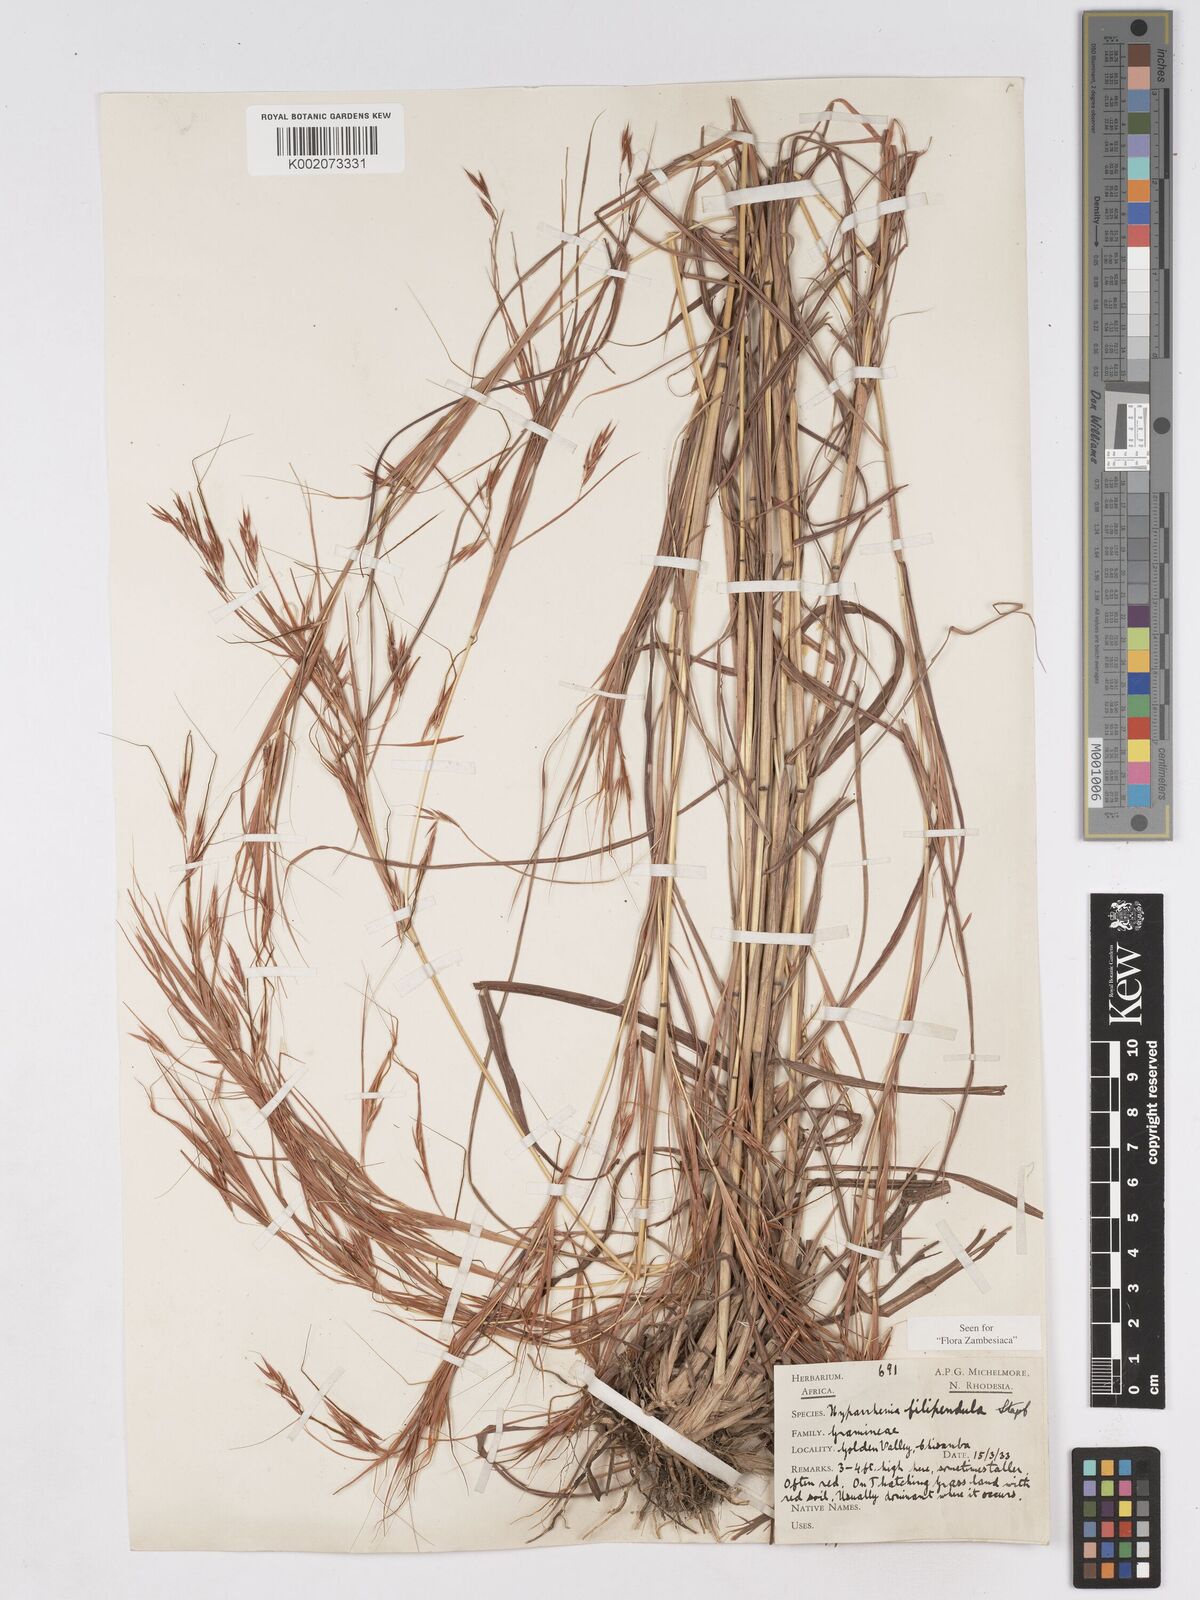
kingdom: Plantae
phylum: Tracheophyta
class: Liliopsida
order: Poales
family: Poaceae
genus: Hyparrhenia
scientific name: Hyparrhenia filipendula
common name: Tambookie grass
